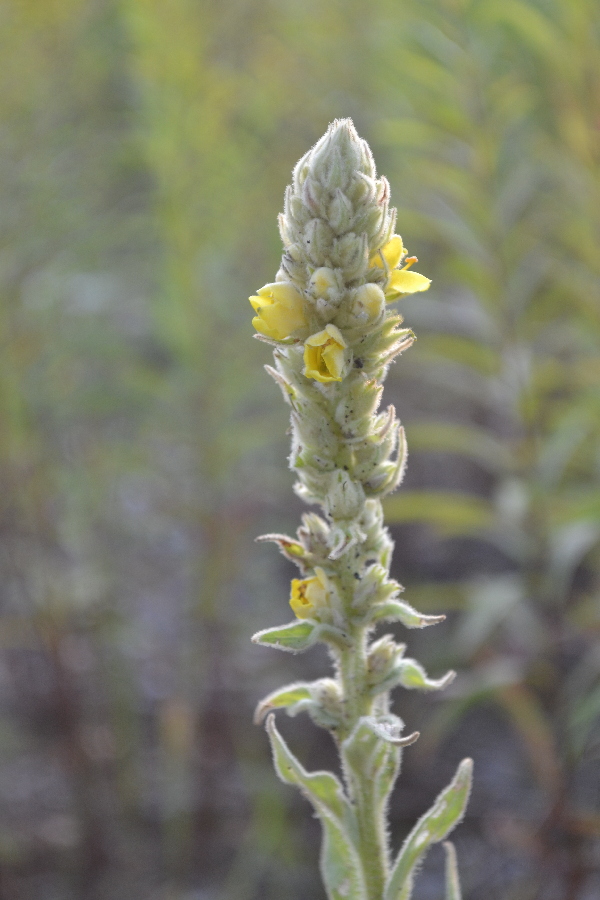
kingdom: Plantae
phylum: Tracheophyta
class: Magnoliopsida
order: Lamiales
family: Scrophulariaceae
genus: Verbascum
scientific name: Verbascum thapsus
